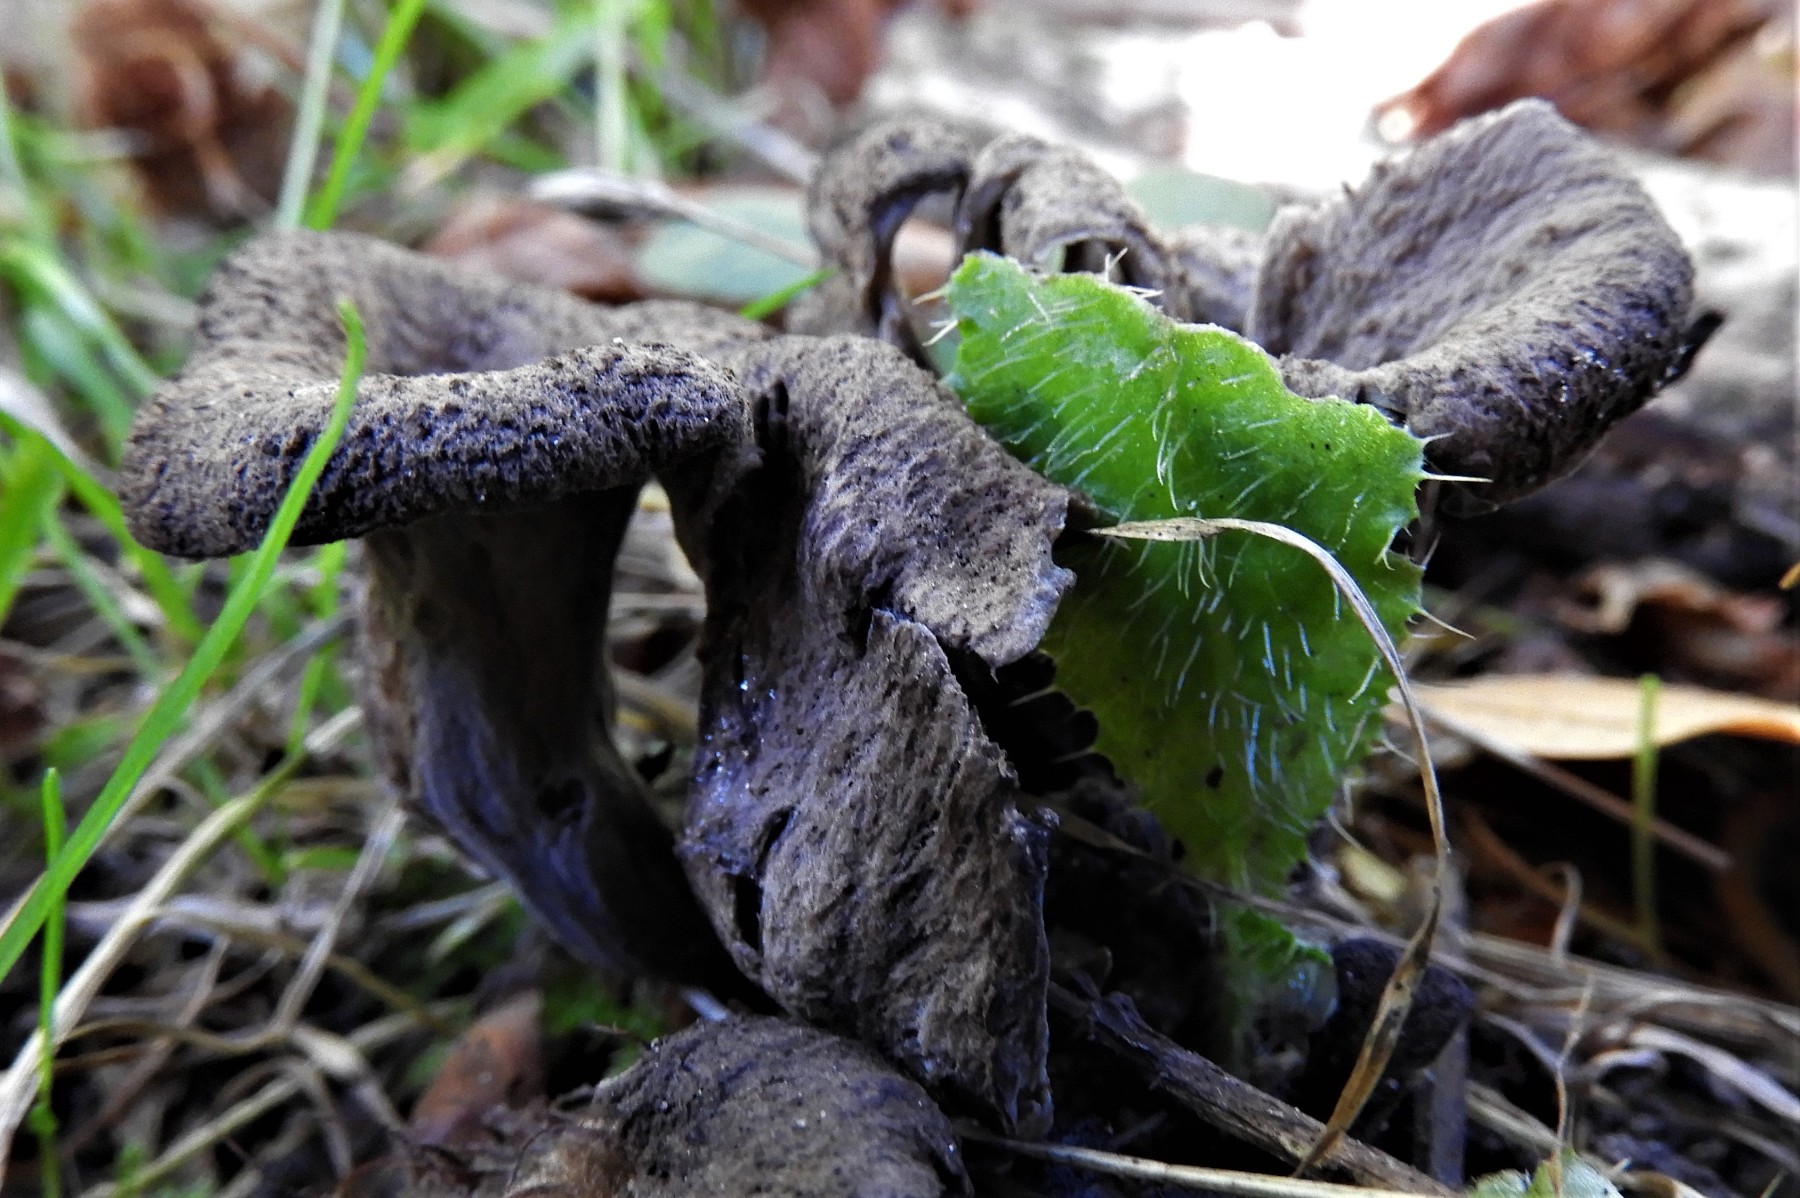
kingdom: Fungi
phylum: Basidiomycota
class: Agaricomycetes
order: Cantharellales
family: Hydnaceae
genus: Craterellus
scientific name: Craterellus cornucopioides
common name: trompetsvamp
